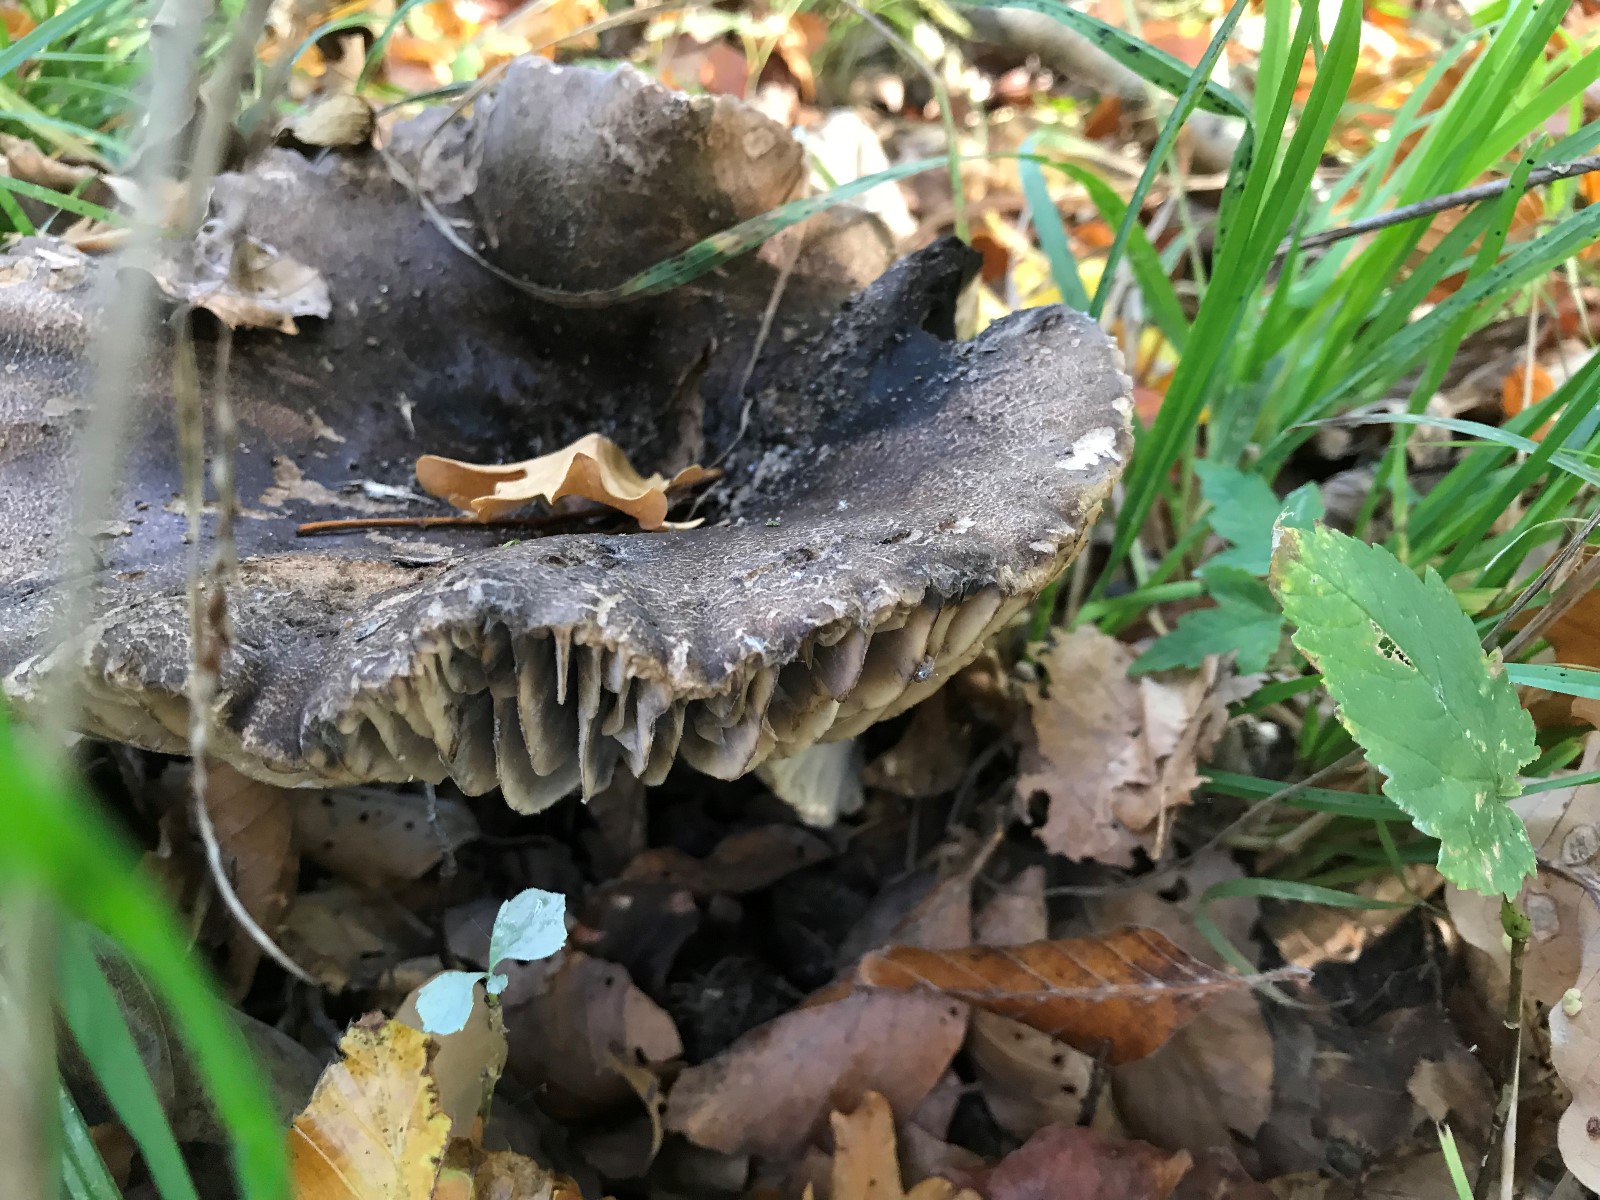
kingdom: Fungi
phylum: Basidiomycota
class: Agaricomycetes
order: Russulales
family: Russulaceae
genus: Russula
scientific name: Russula adusta
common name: sværtende skørhat
